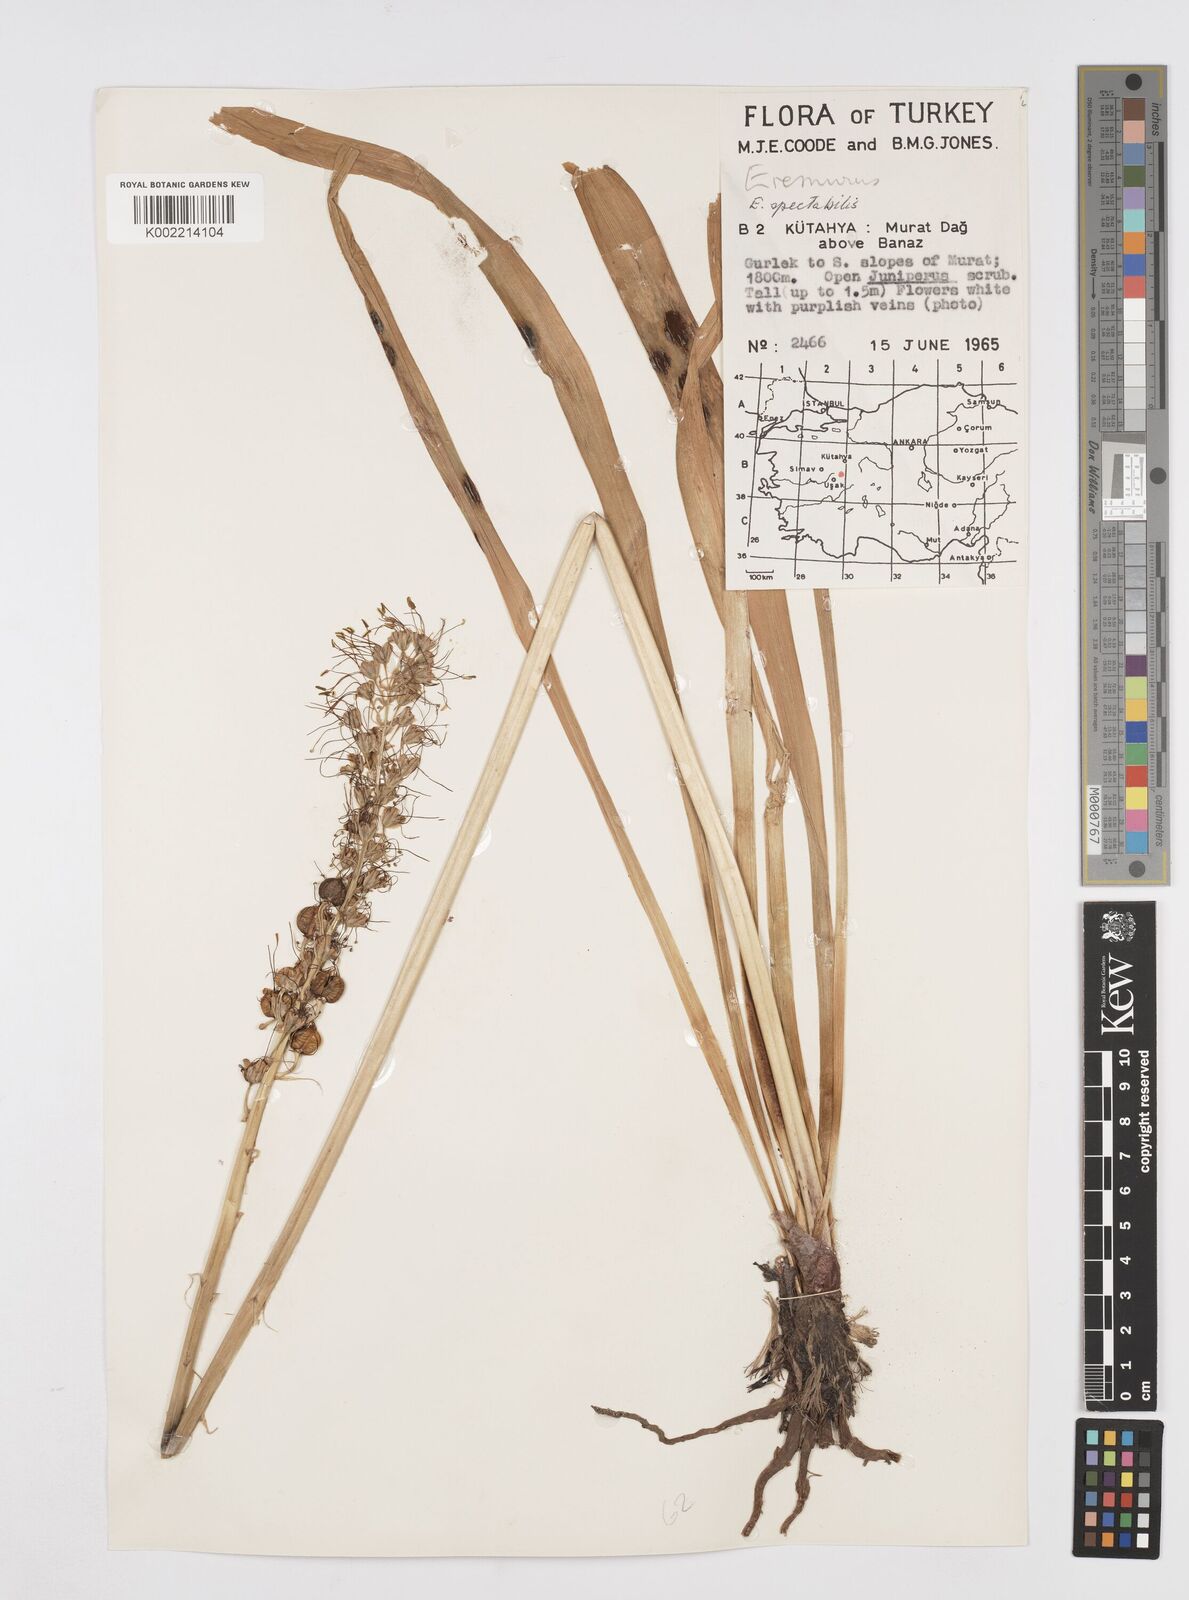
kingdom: Plantae
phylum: Tracheophyta
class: Liliopsida
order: Asparagales
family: Asphodelaceae
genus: Eremurus
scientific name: Eremurus spectabilis
